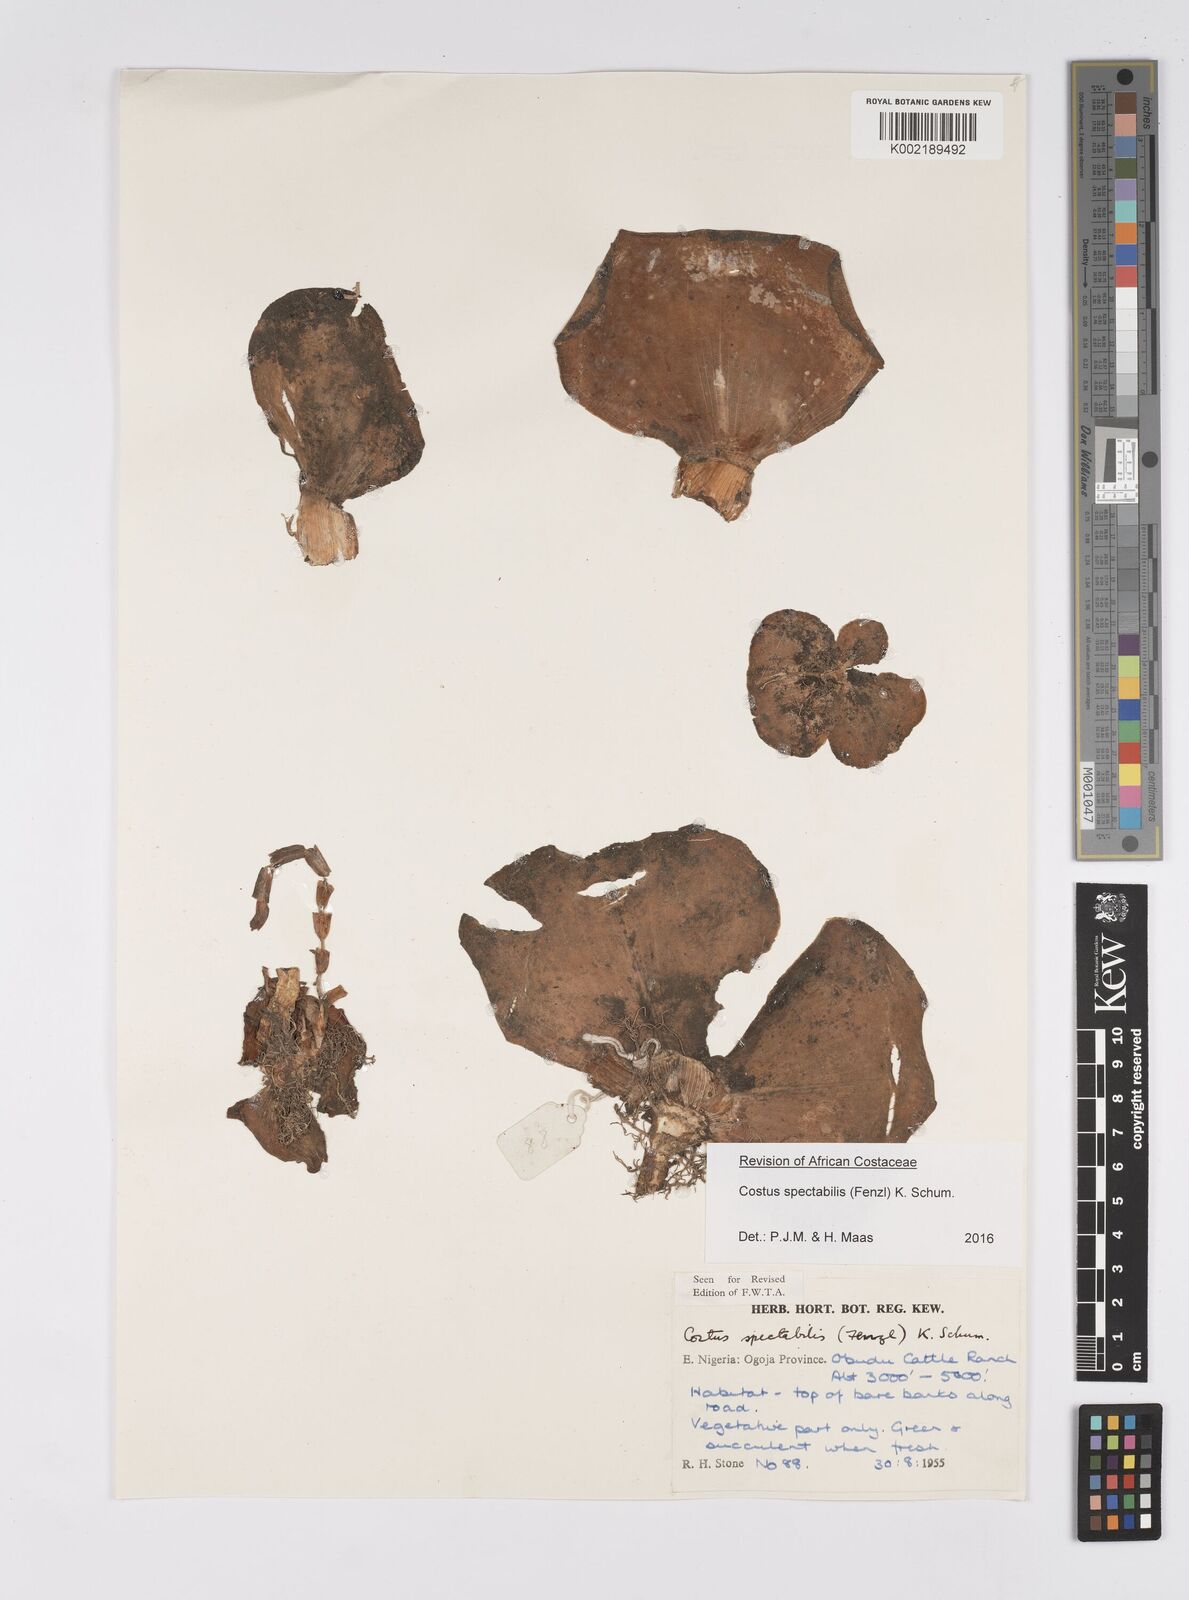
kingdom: Plantae
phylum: Tracheophyta
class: Liliopsida
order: Zingiberales
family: Costaceae
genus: Costus
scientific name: Costus spectabilis
